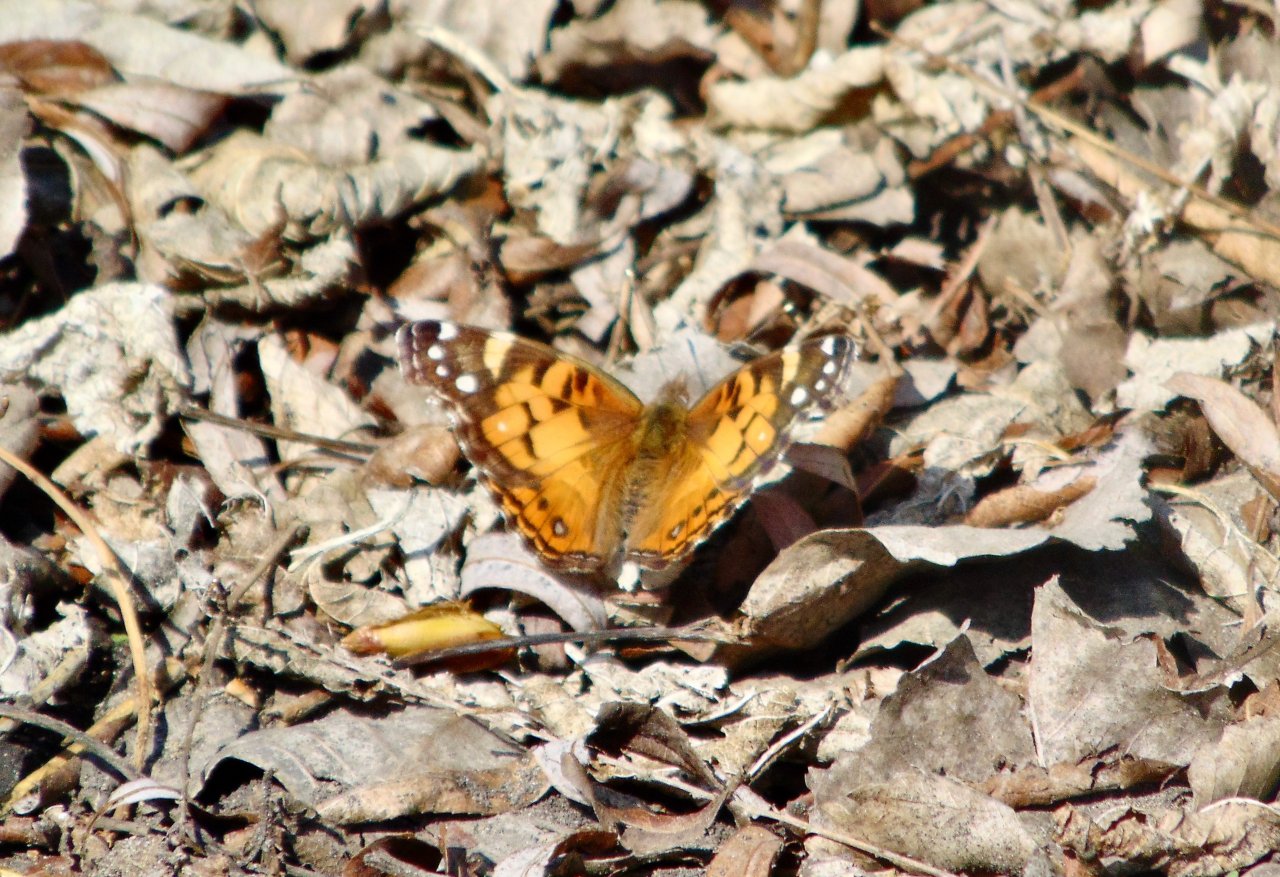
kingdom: Animalia
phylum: Arthropoda
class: Insecta
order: Lepidoptera
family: Nymphalidae
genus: Vanessa
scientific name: Vanessa virginiensis
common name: American Lady
